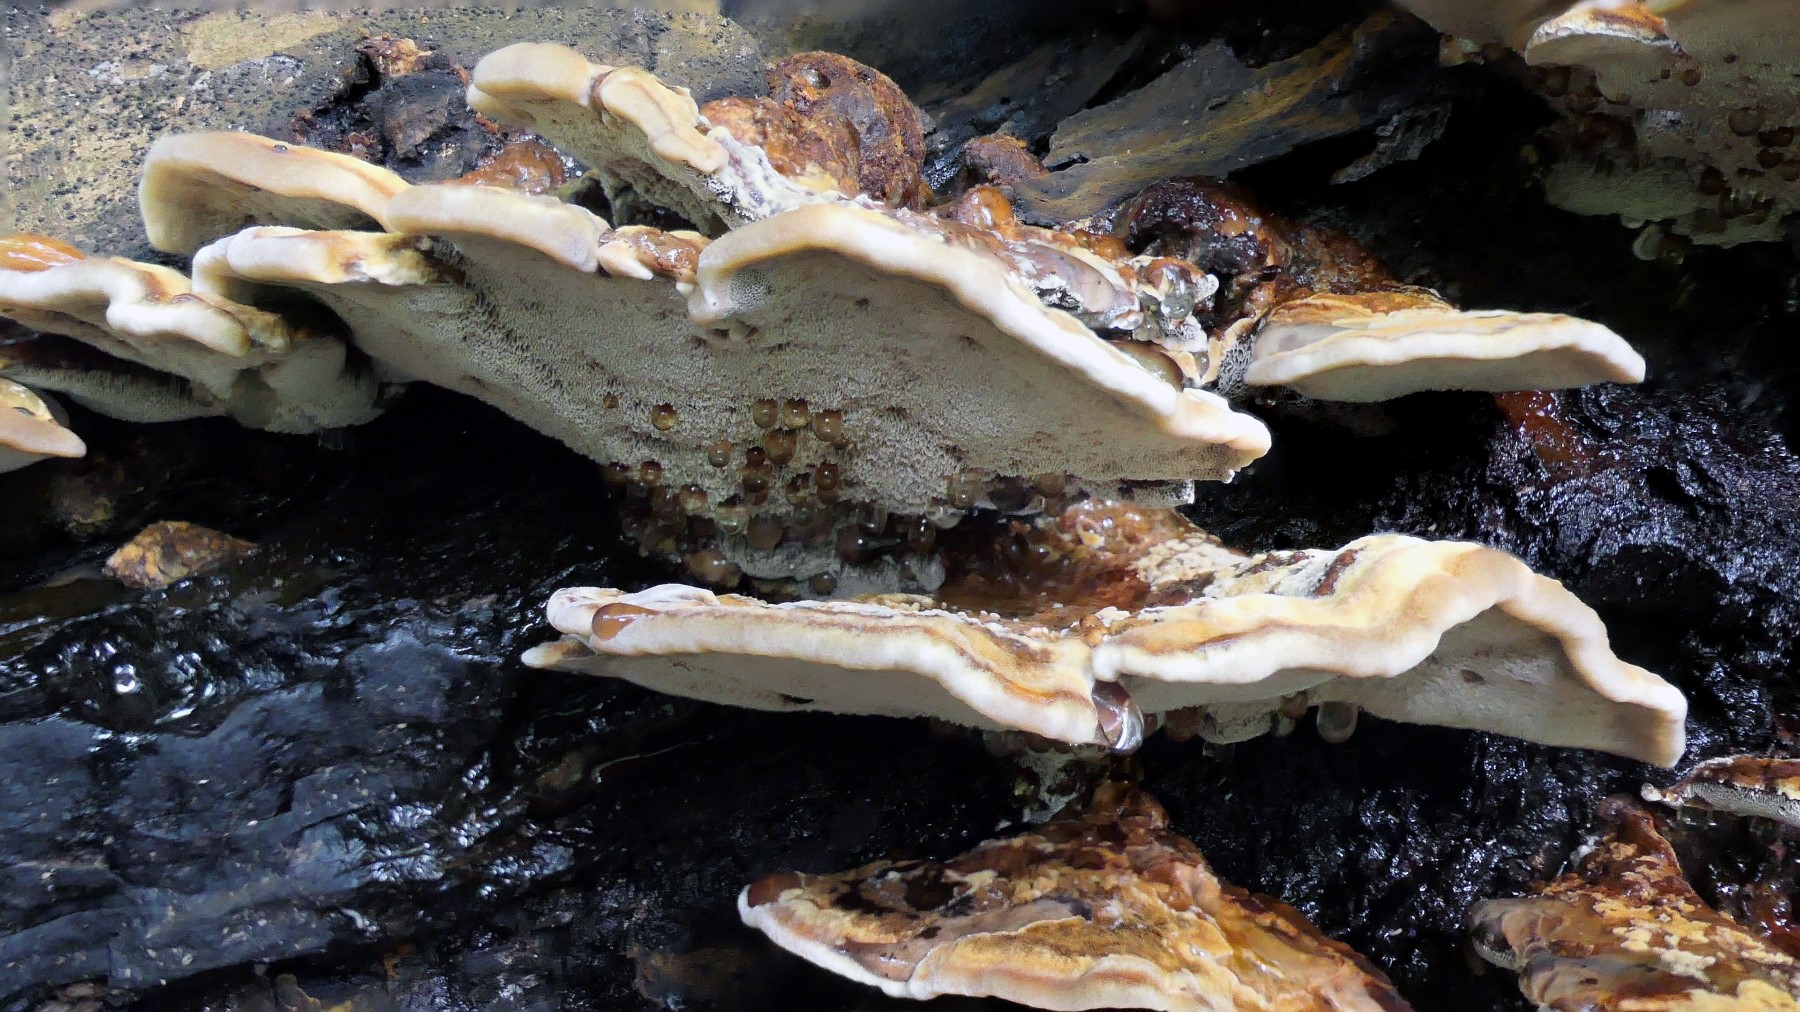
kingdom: Fungi
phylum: Basidiomycota
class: Agaricomycetes
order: Hymenochaetales
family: Hymenochaetaceae
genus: Xanthoporia
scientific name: Xanthoporia radiata
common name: elle-spejlporesvamp
